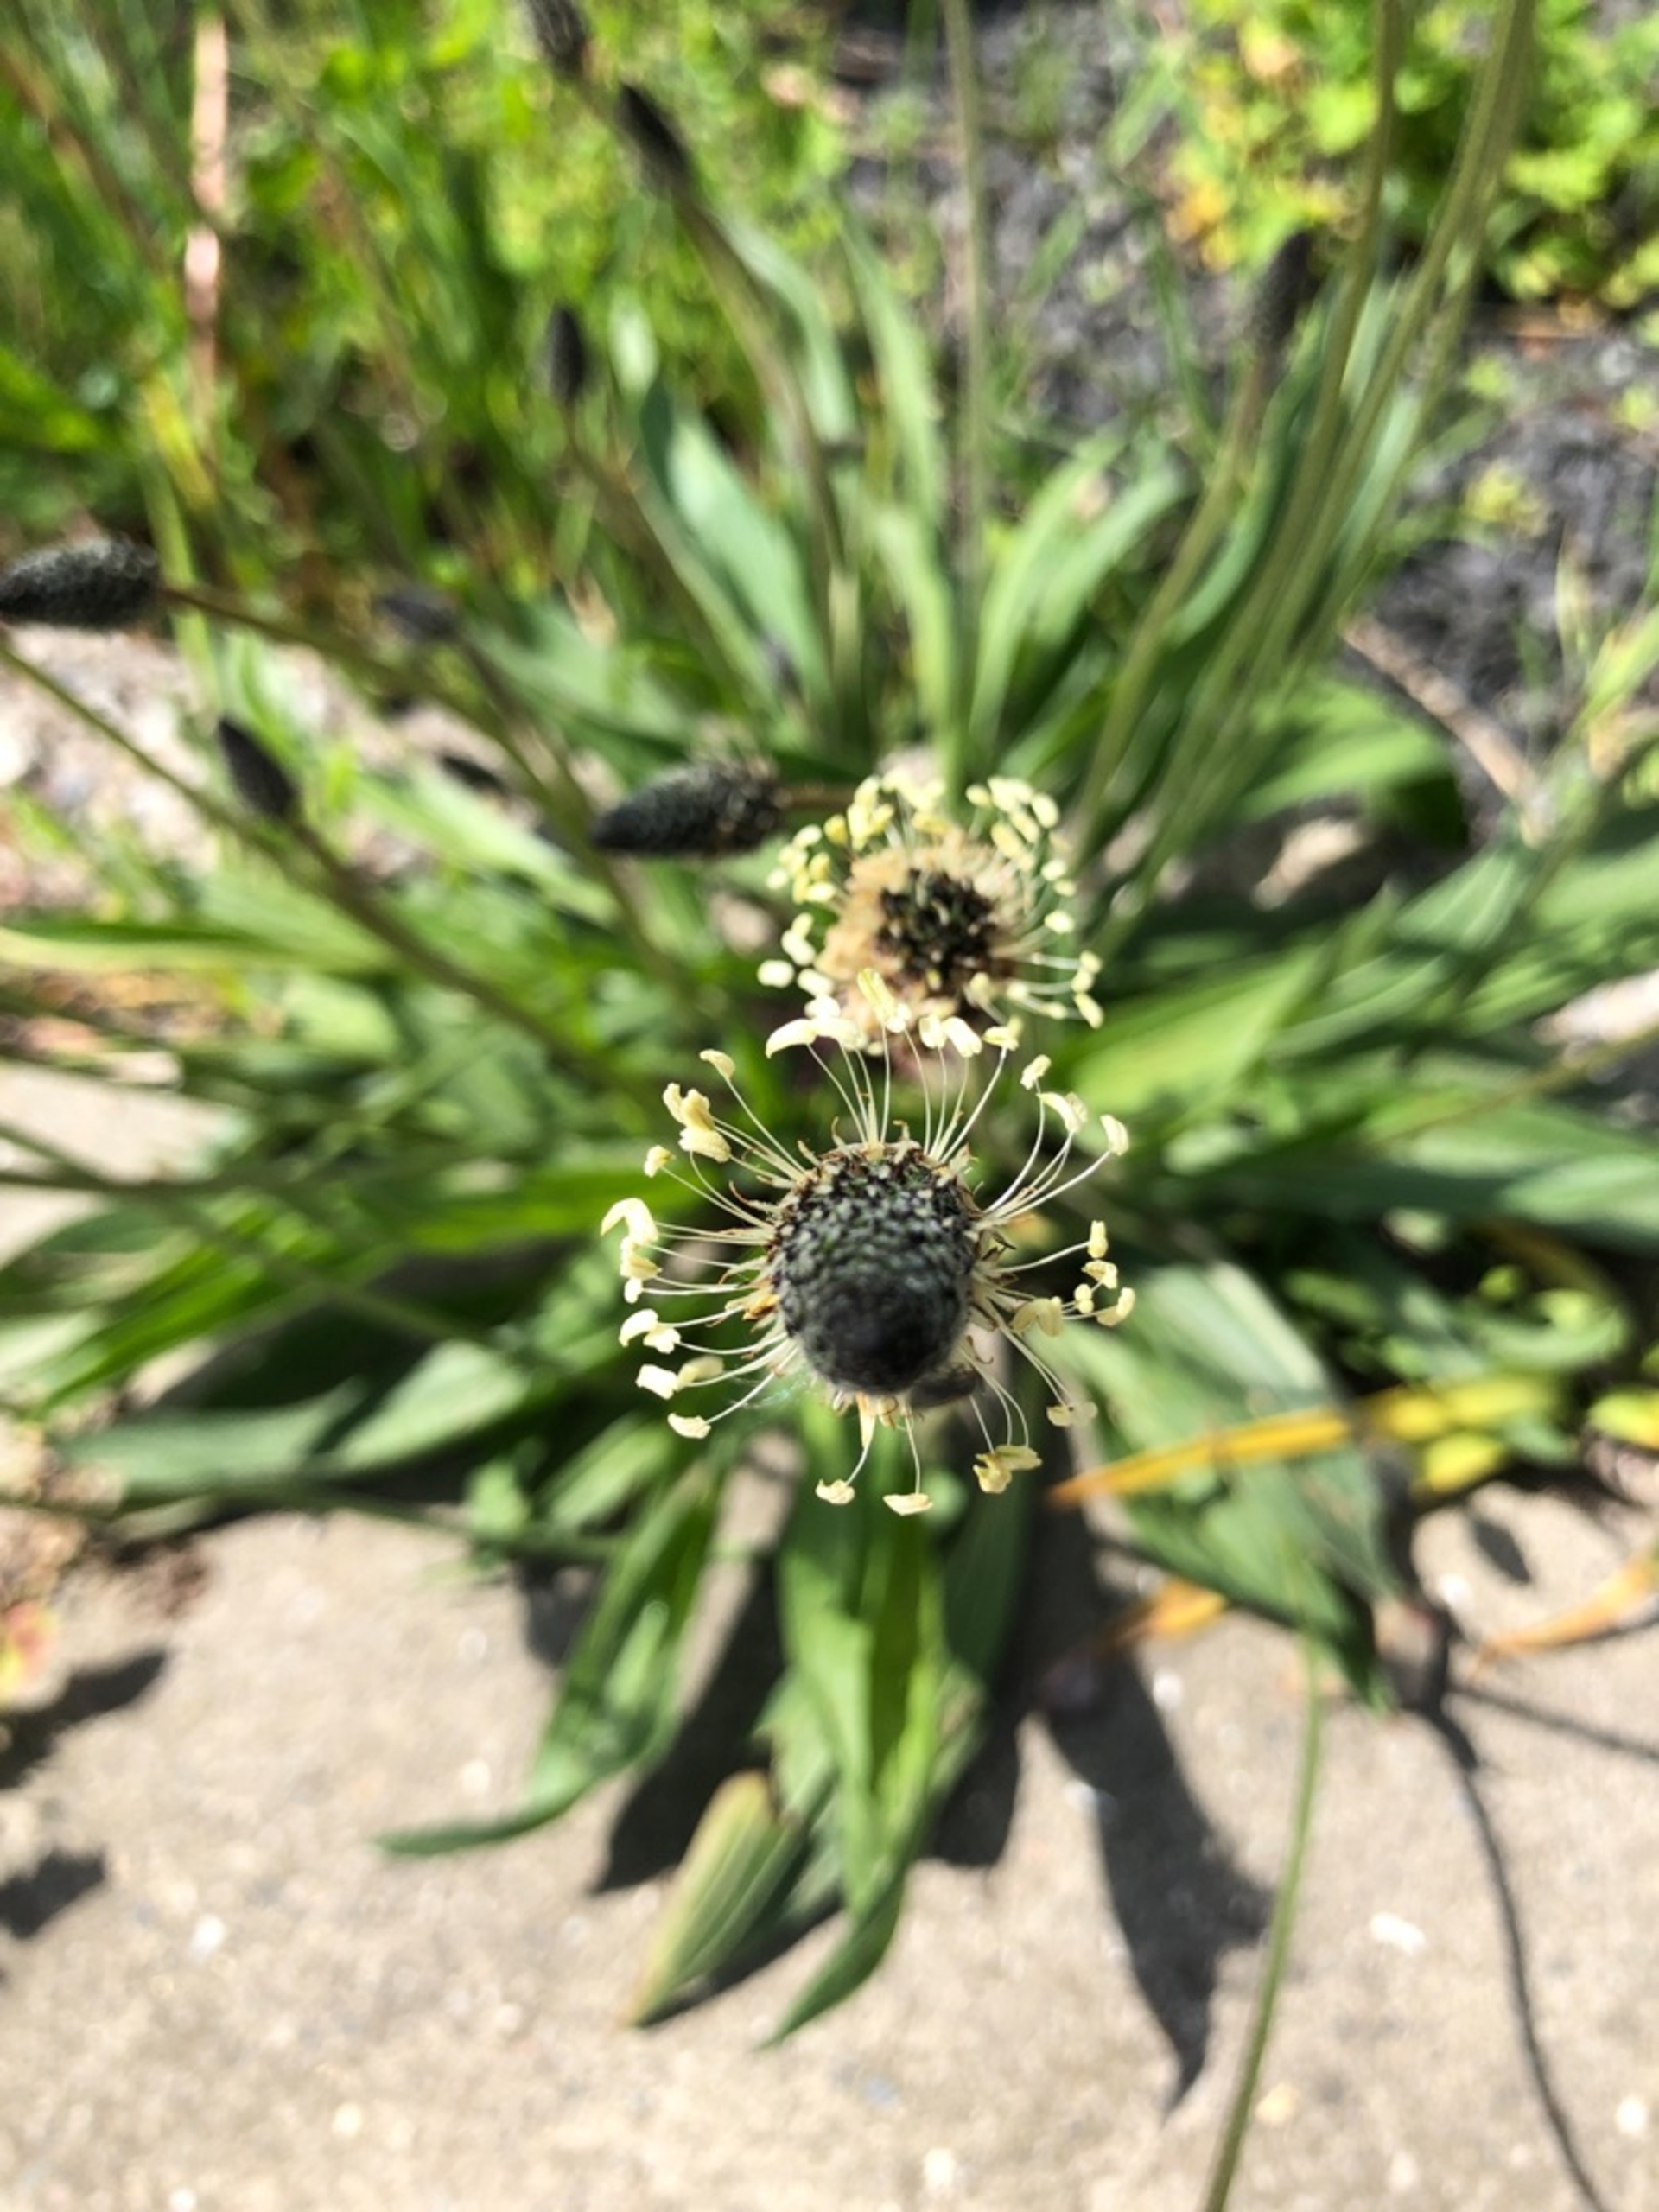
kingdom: Plantae
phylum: Tracheophyta
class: Magnoliopsida
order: Lamiales
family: Plantaginaceae
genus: Plantago
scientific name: Plantago lanceolata
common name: Lancet-vejbred
